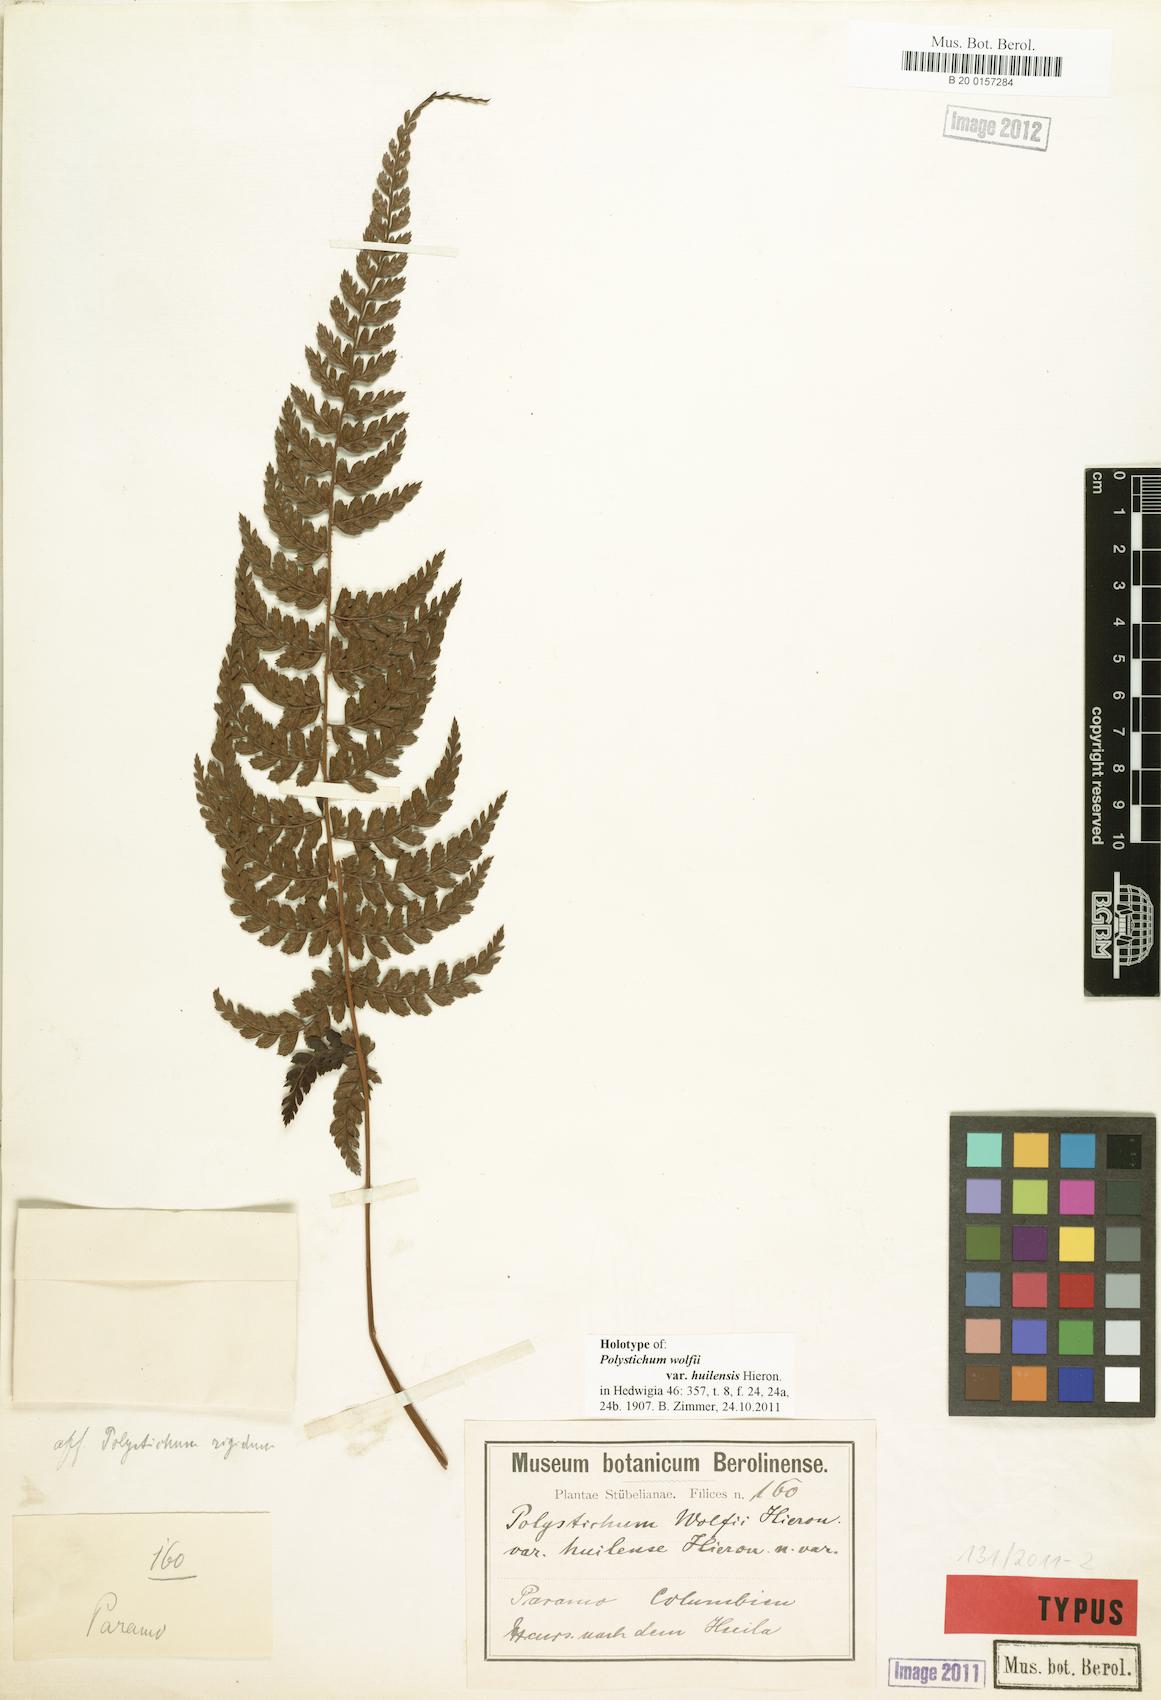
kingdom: Plantae
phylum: Tracheophyta
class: Polypodiopsida
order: Polypodiales
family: Dryopteridaceae
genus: Polystichum
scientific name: Polystichum nudicaule
